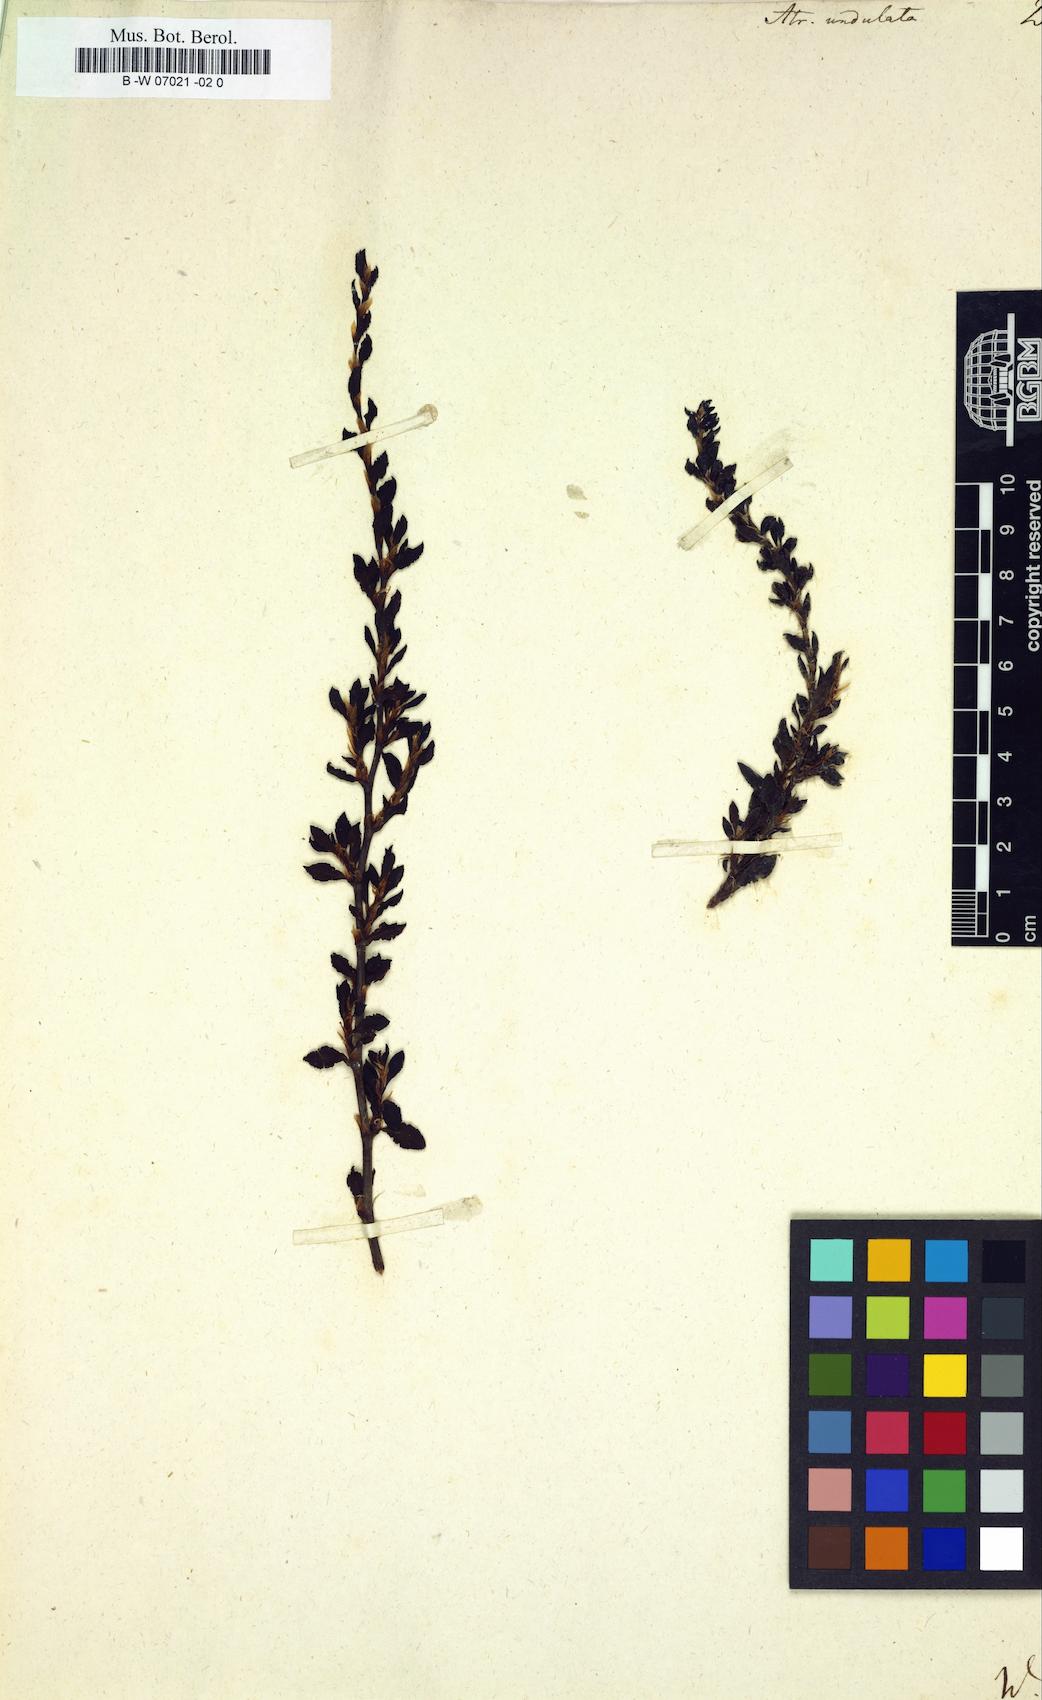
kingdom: Plantae
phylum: Tracheophyta
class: Magnoliopsida
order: Caryophyllales
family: Polygonaceae
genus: Persicaria
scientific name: Persicaria undulata
